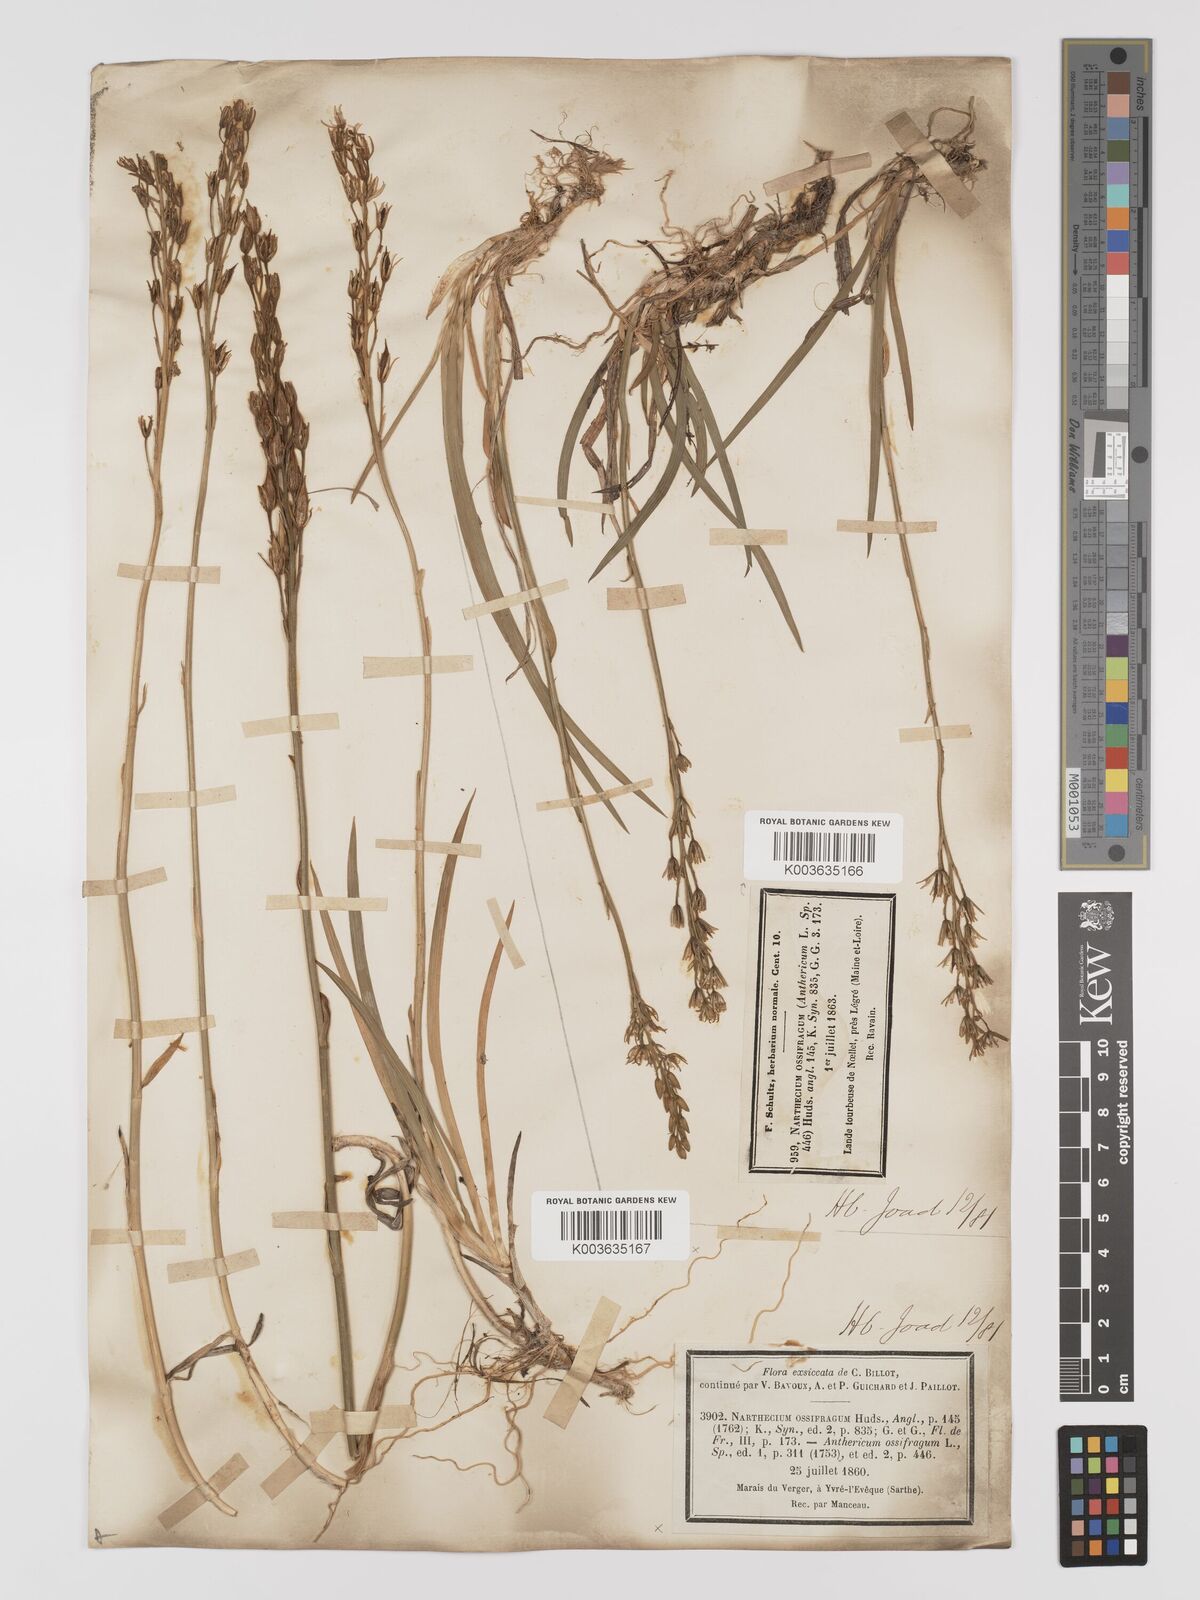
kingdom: Plantae
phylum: Tracheophyta
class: Liliopsida
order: Dioscoreales
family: Nartheciaceae
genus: Narthecium
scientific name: Narthecium ossifragum
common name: Bog asphodel
